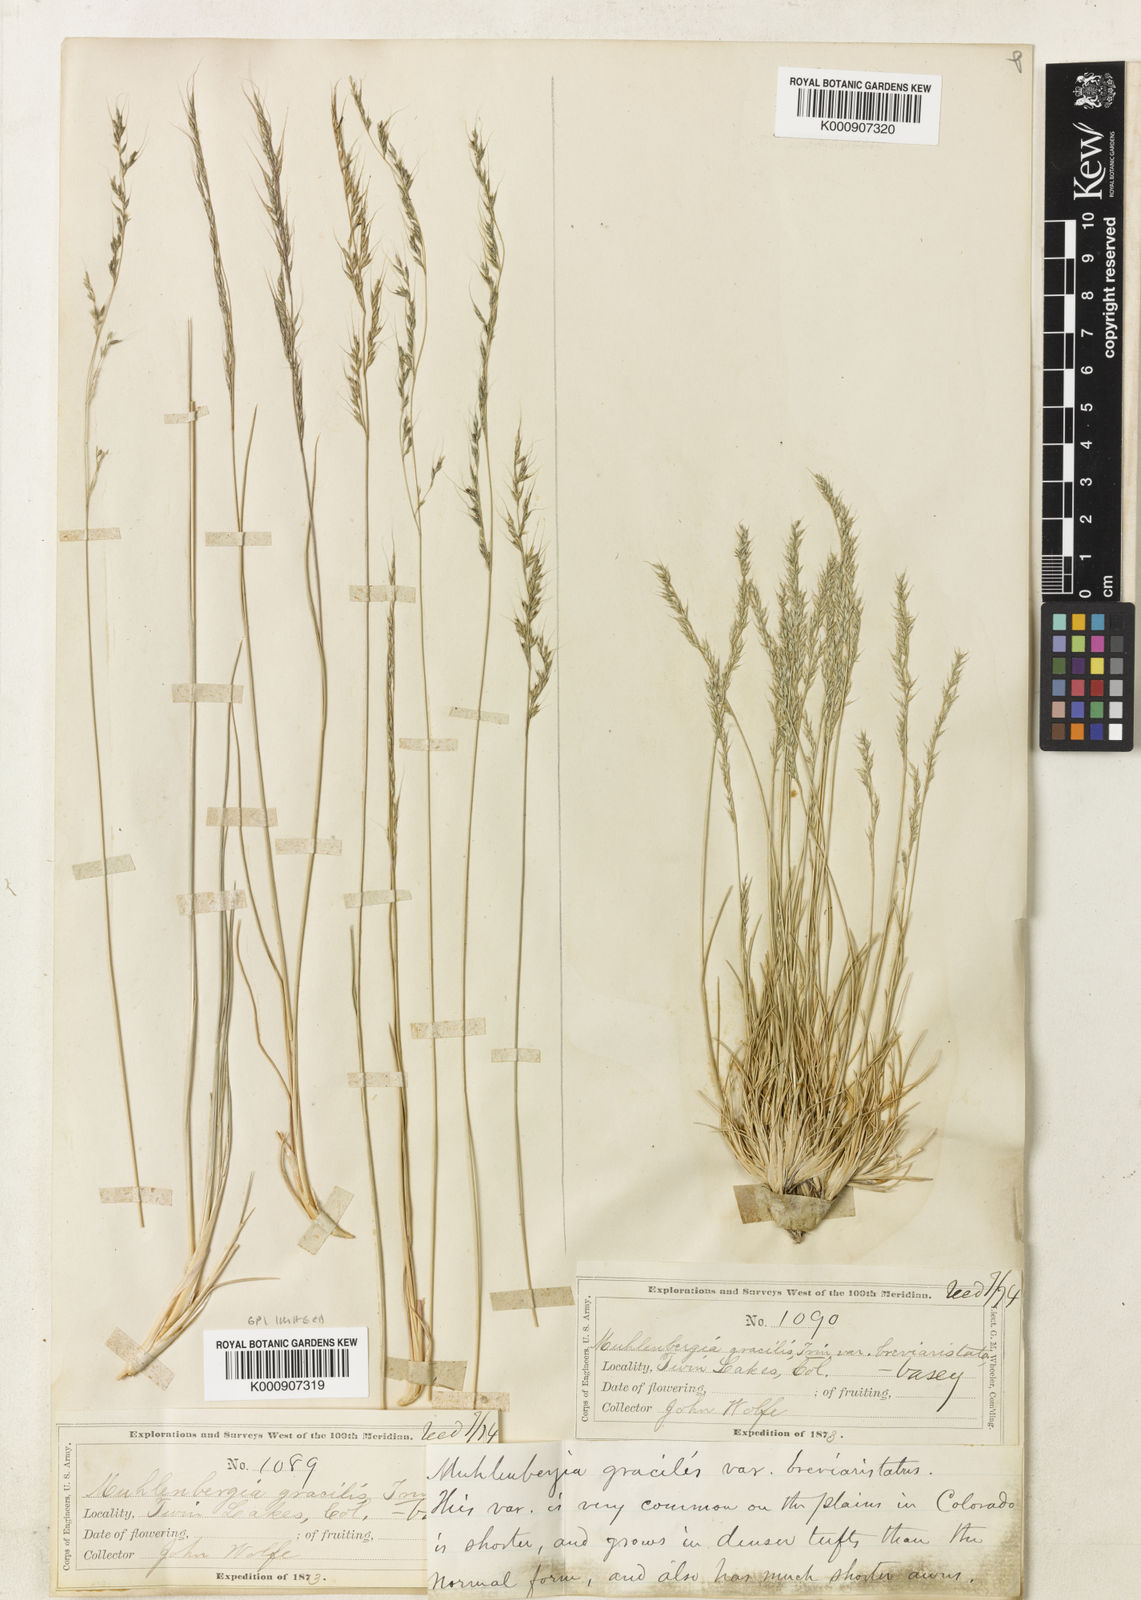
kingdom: Plantae
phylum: Tracheophyta
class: Liliopsida
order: Poales
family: Poaceae
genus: Muhlenbergia
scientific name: Muhlenbergia montana
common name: Mountain muhly
